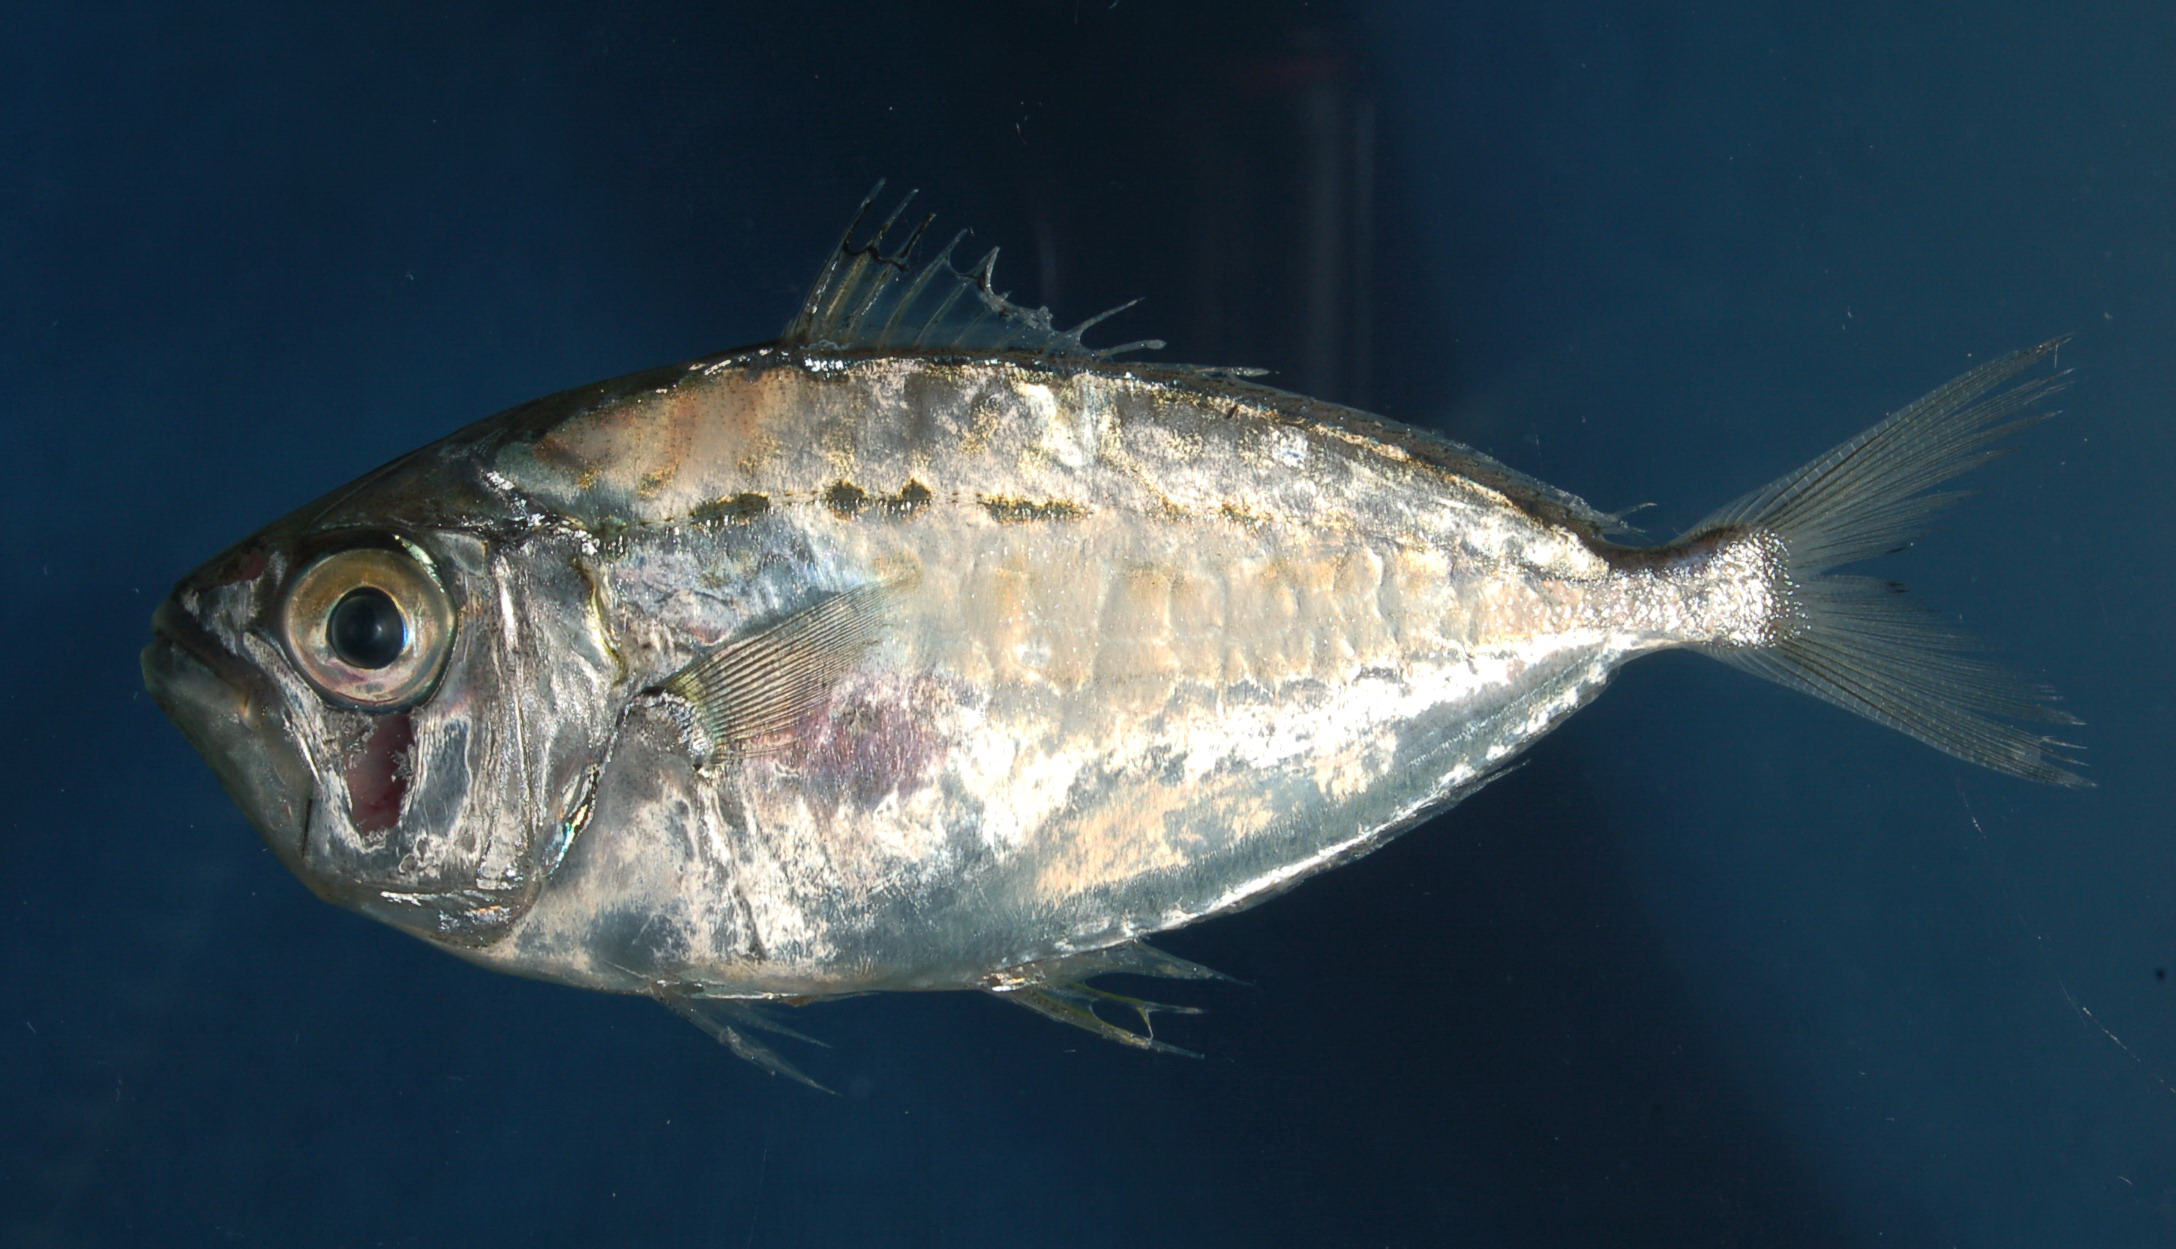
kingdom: Animalia
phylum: Chordata
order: Perciformes
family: Leiognathidae
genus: Gazza
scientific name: Gazza minuta
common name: Toothpony
